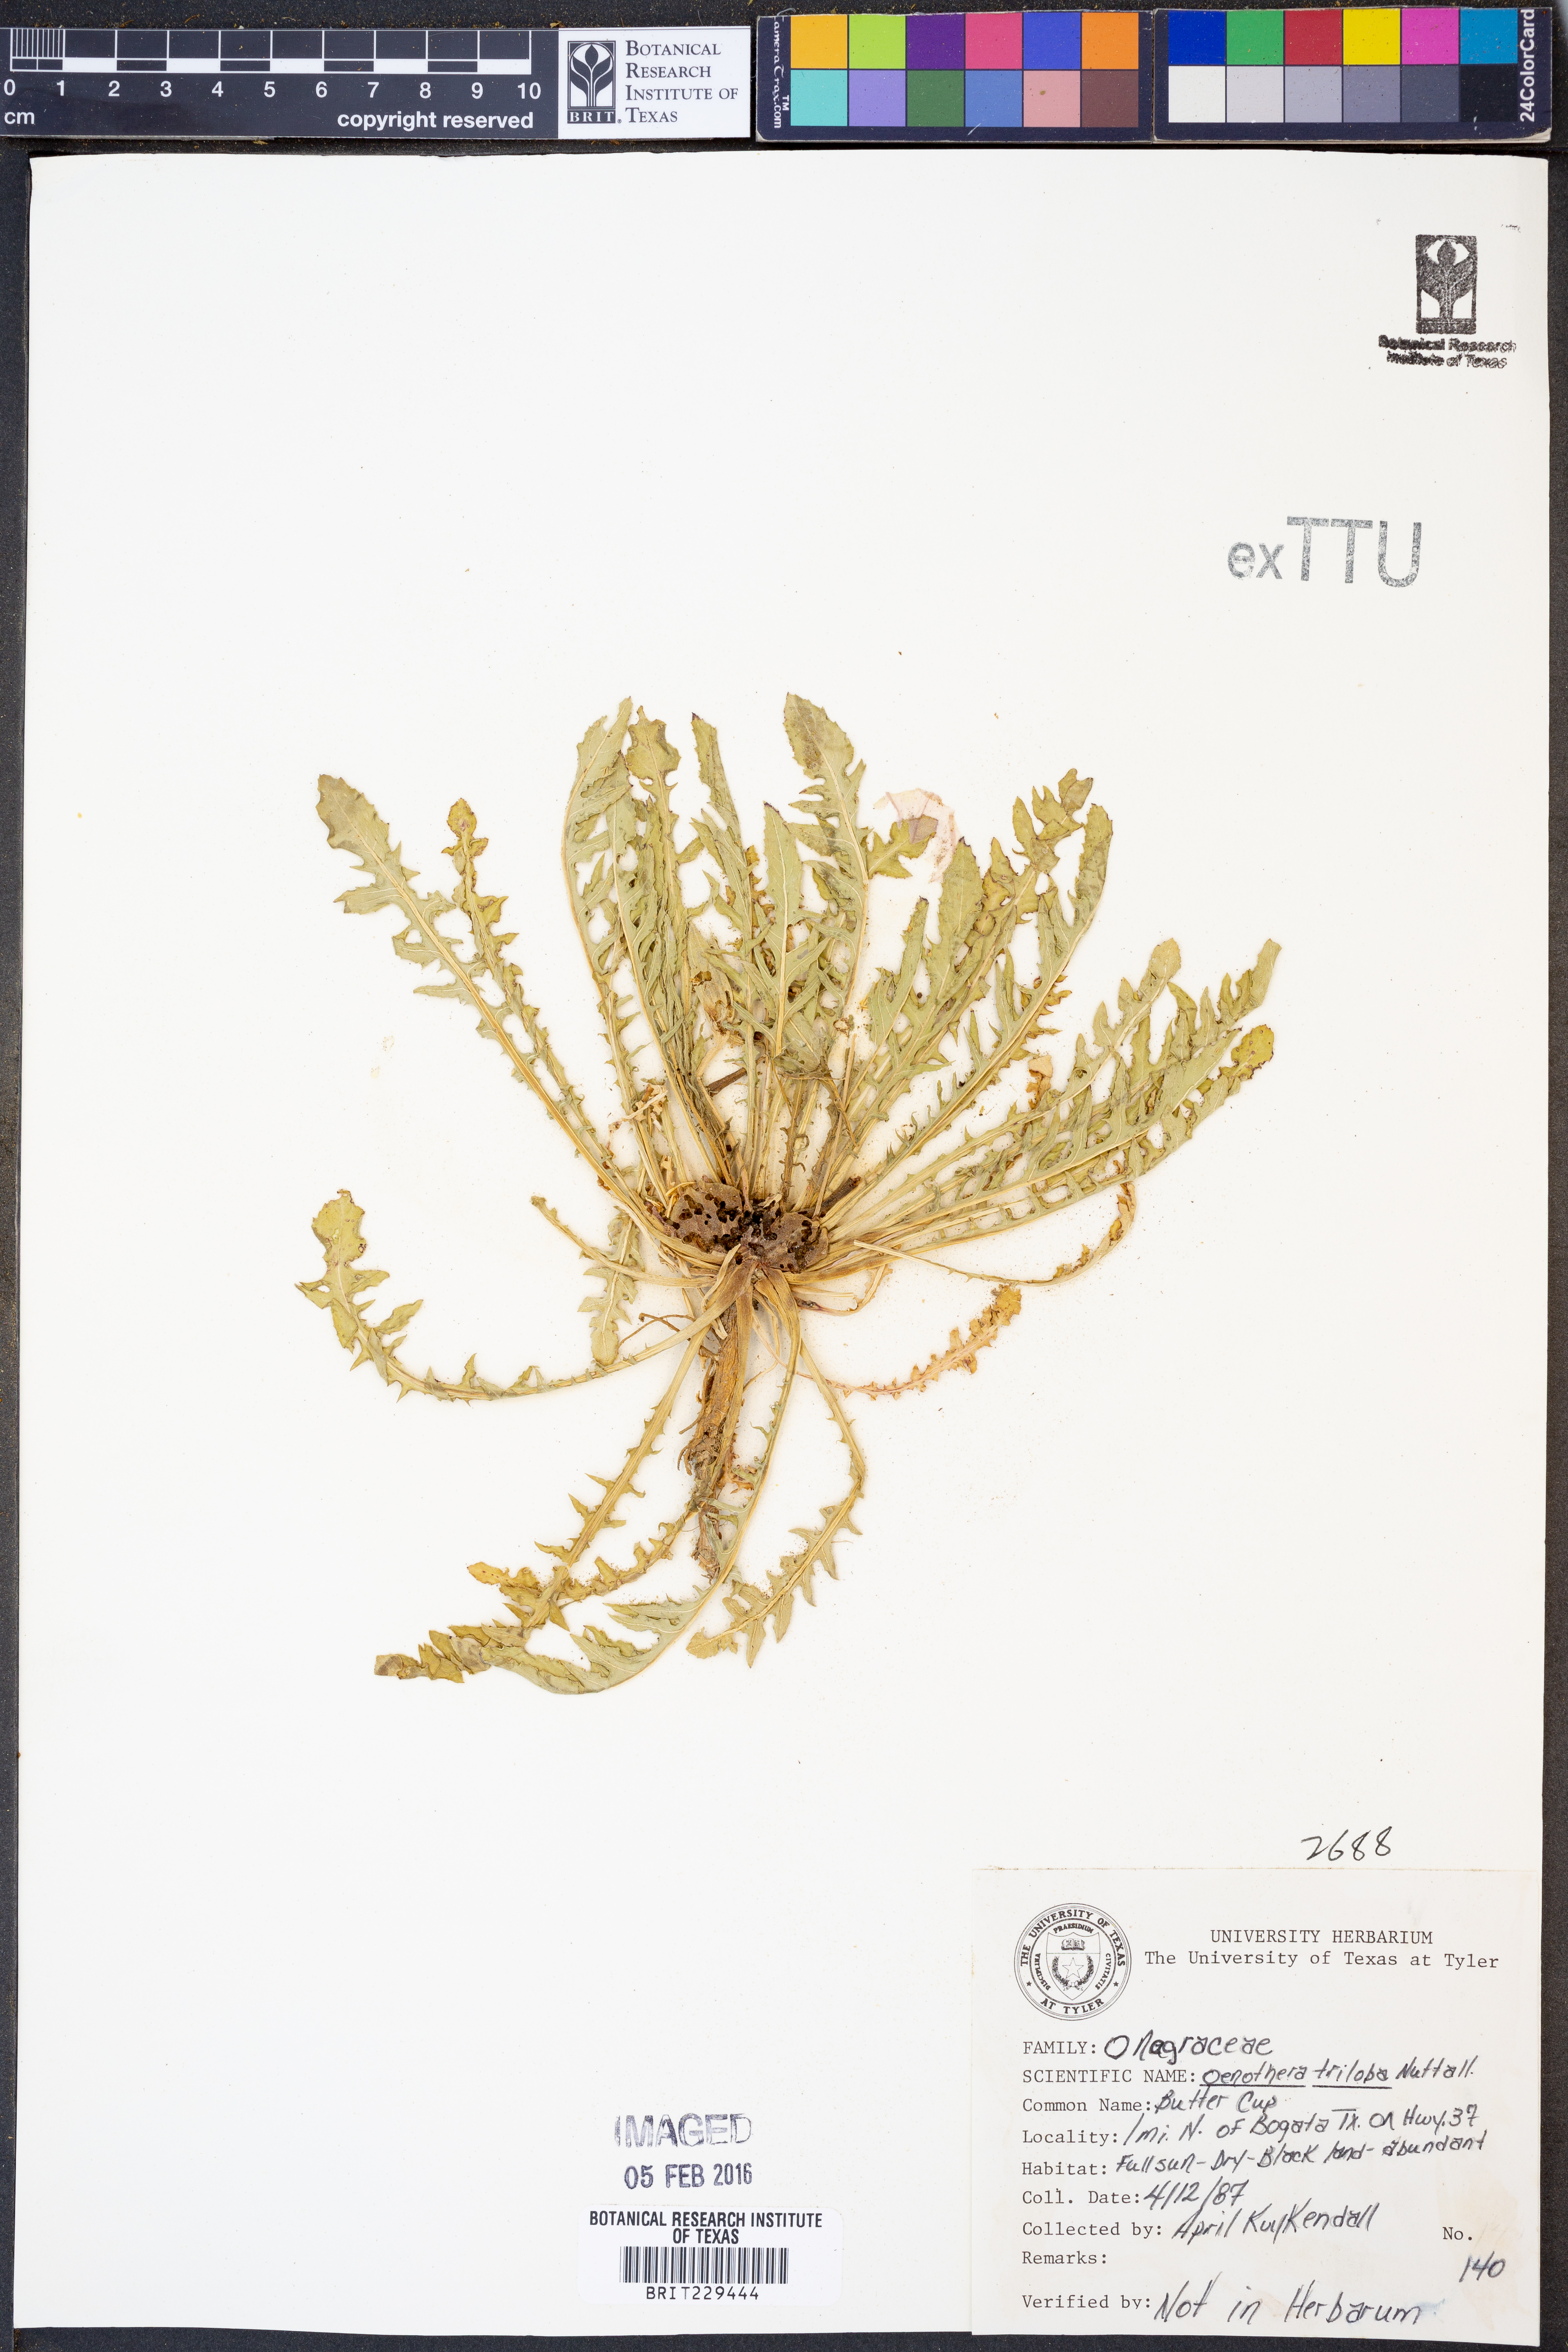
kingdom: Plantae
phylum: Tracheophyta
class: Magnoliopsida
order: Myrtales
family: Onagraceae
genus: Oenothera
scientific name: Oenothera triloba
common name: Sessile evening-primrose
